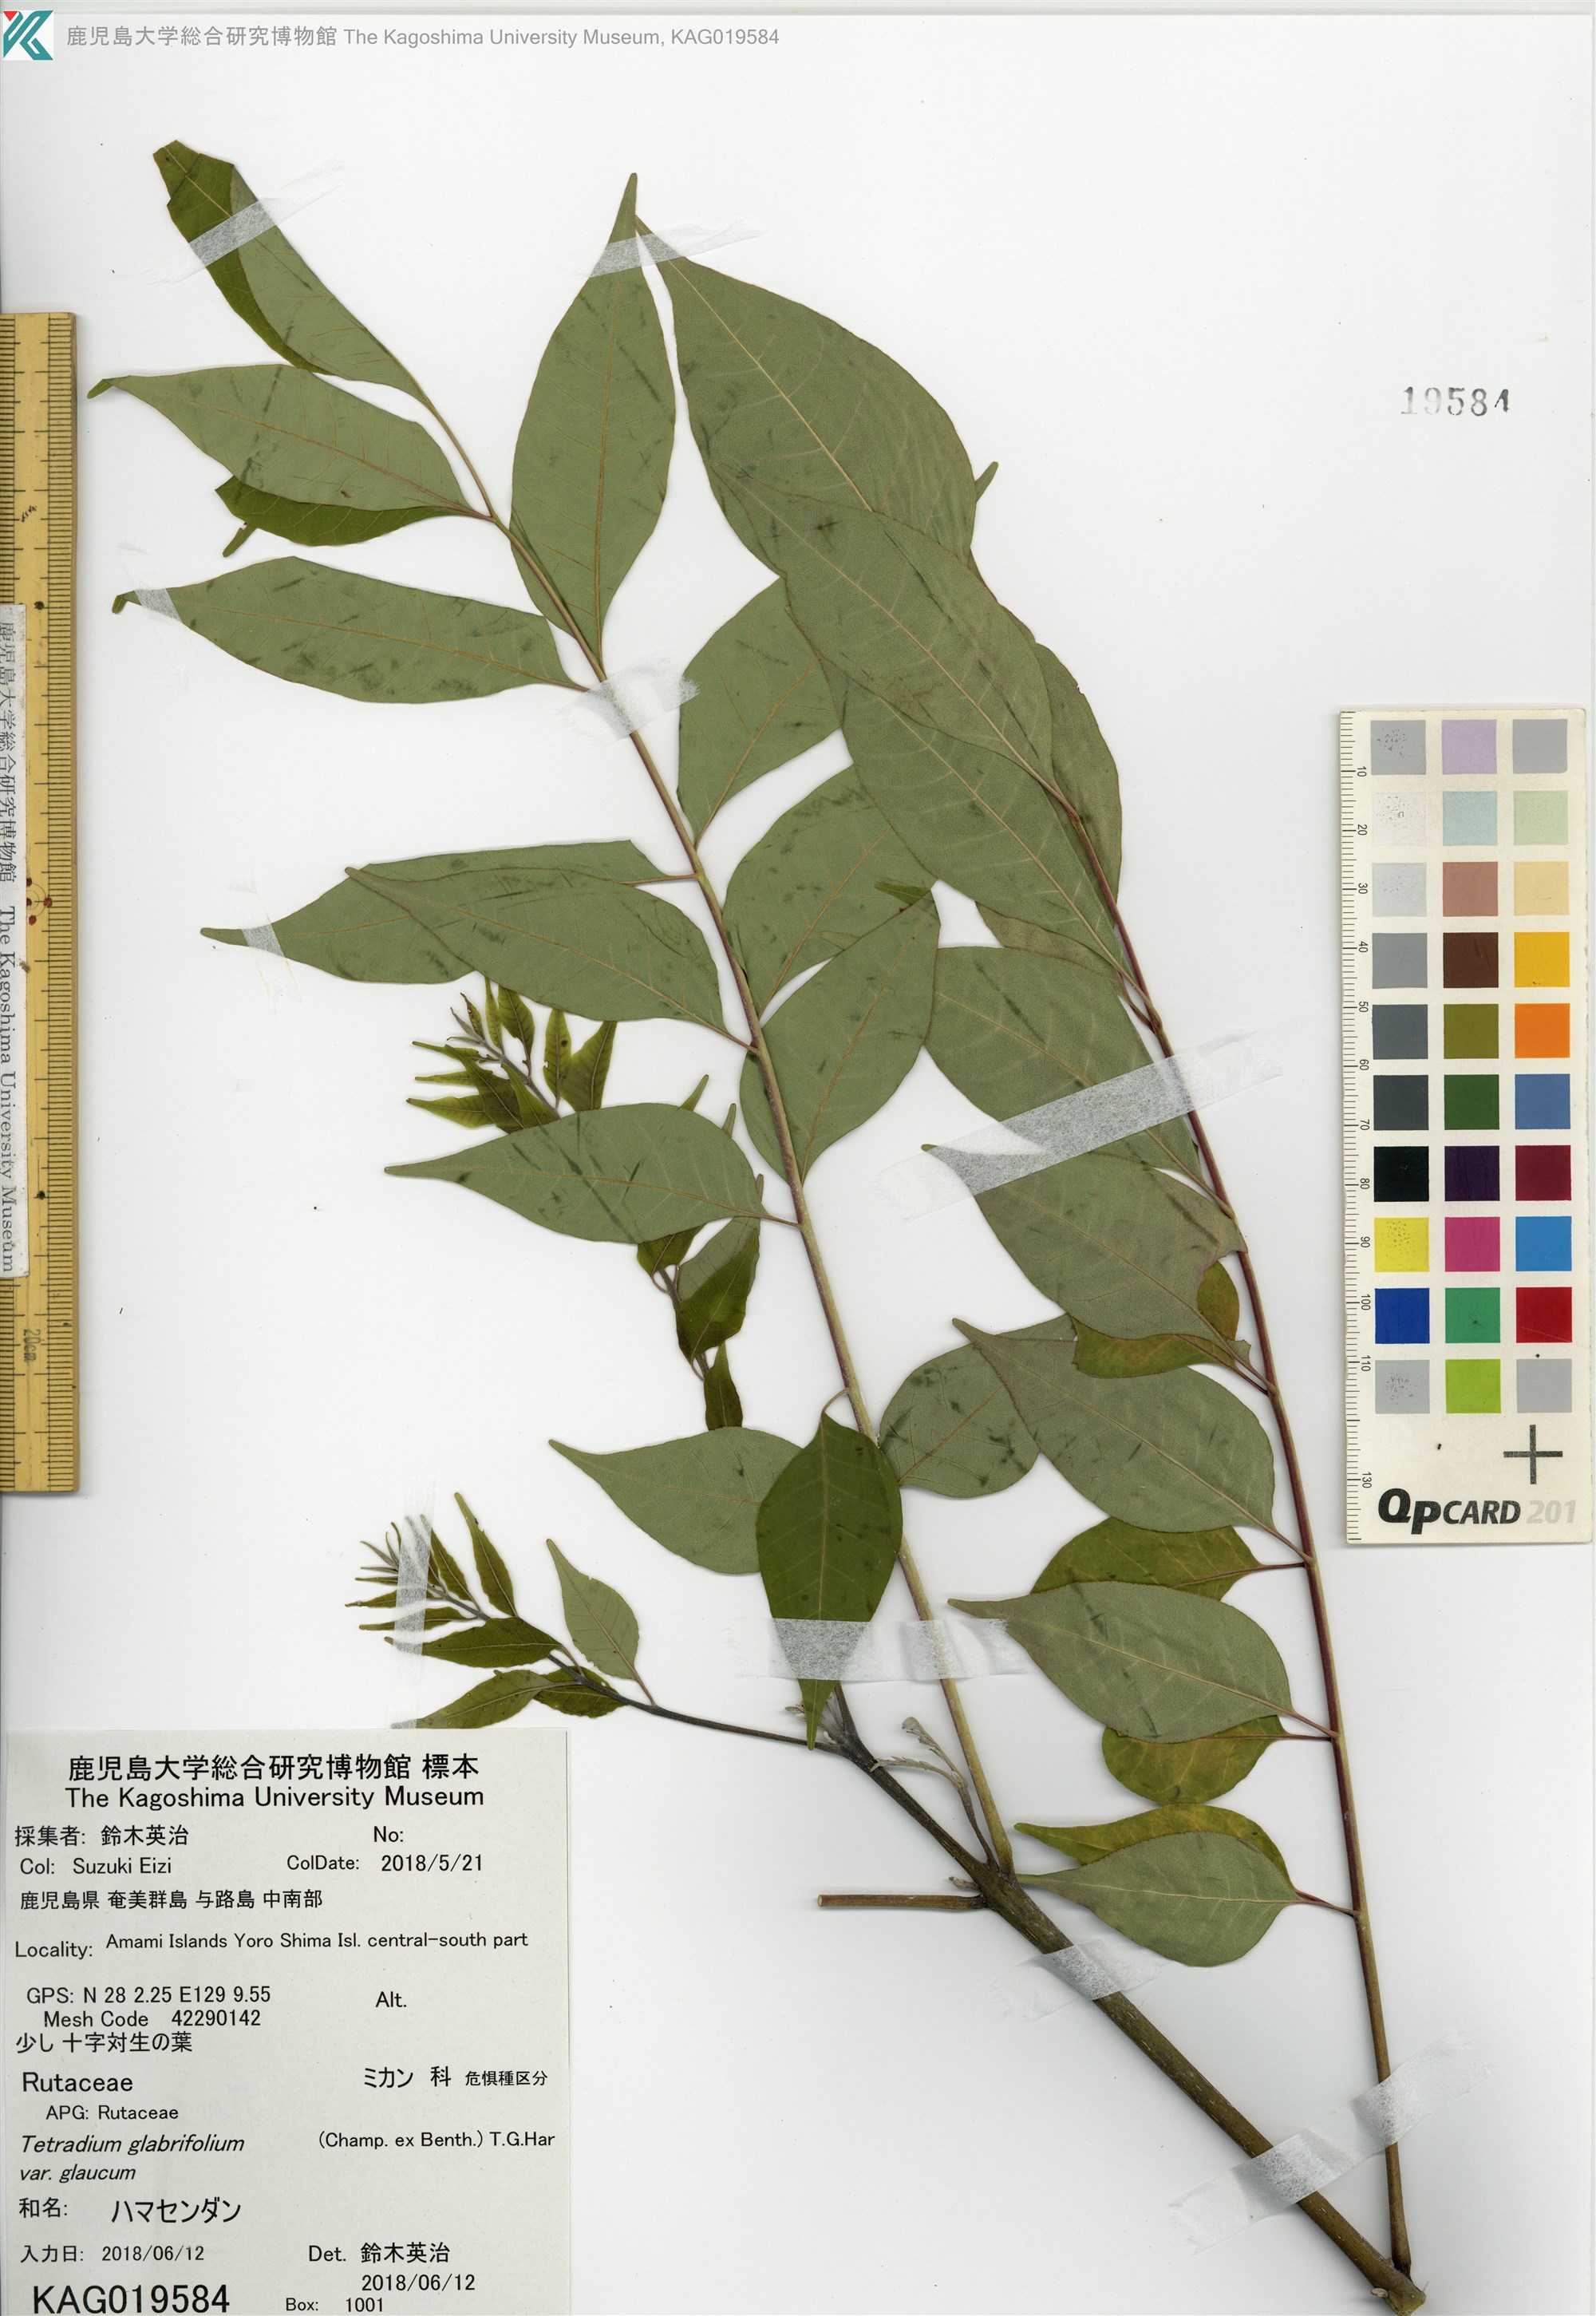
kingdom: Plantae
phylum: Tracheophyta
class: Magnoliopsida
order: Sapindales
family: Rutaceae
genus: Tetradium
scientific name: Tetradium glabrifolium
